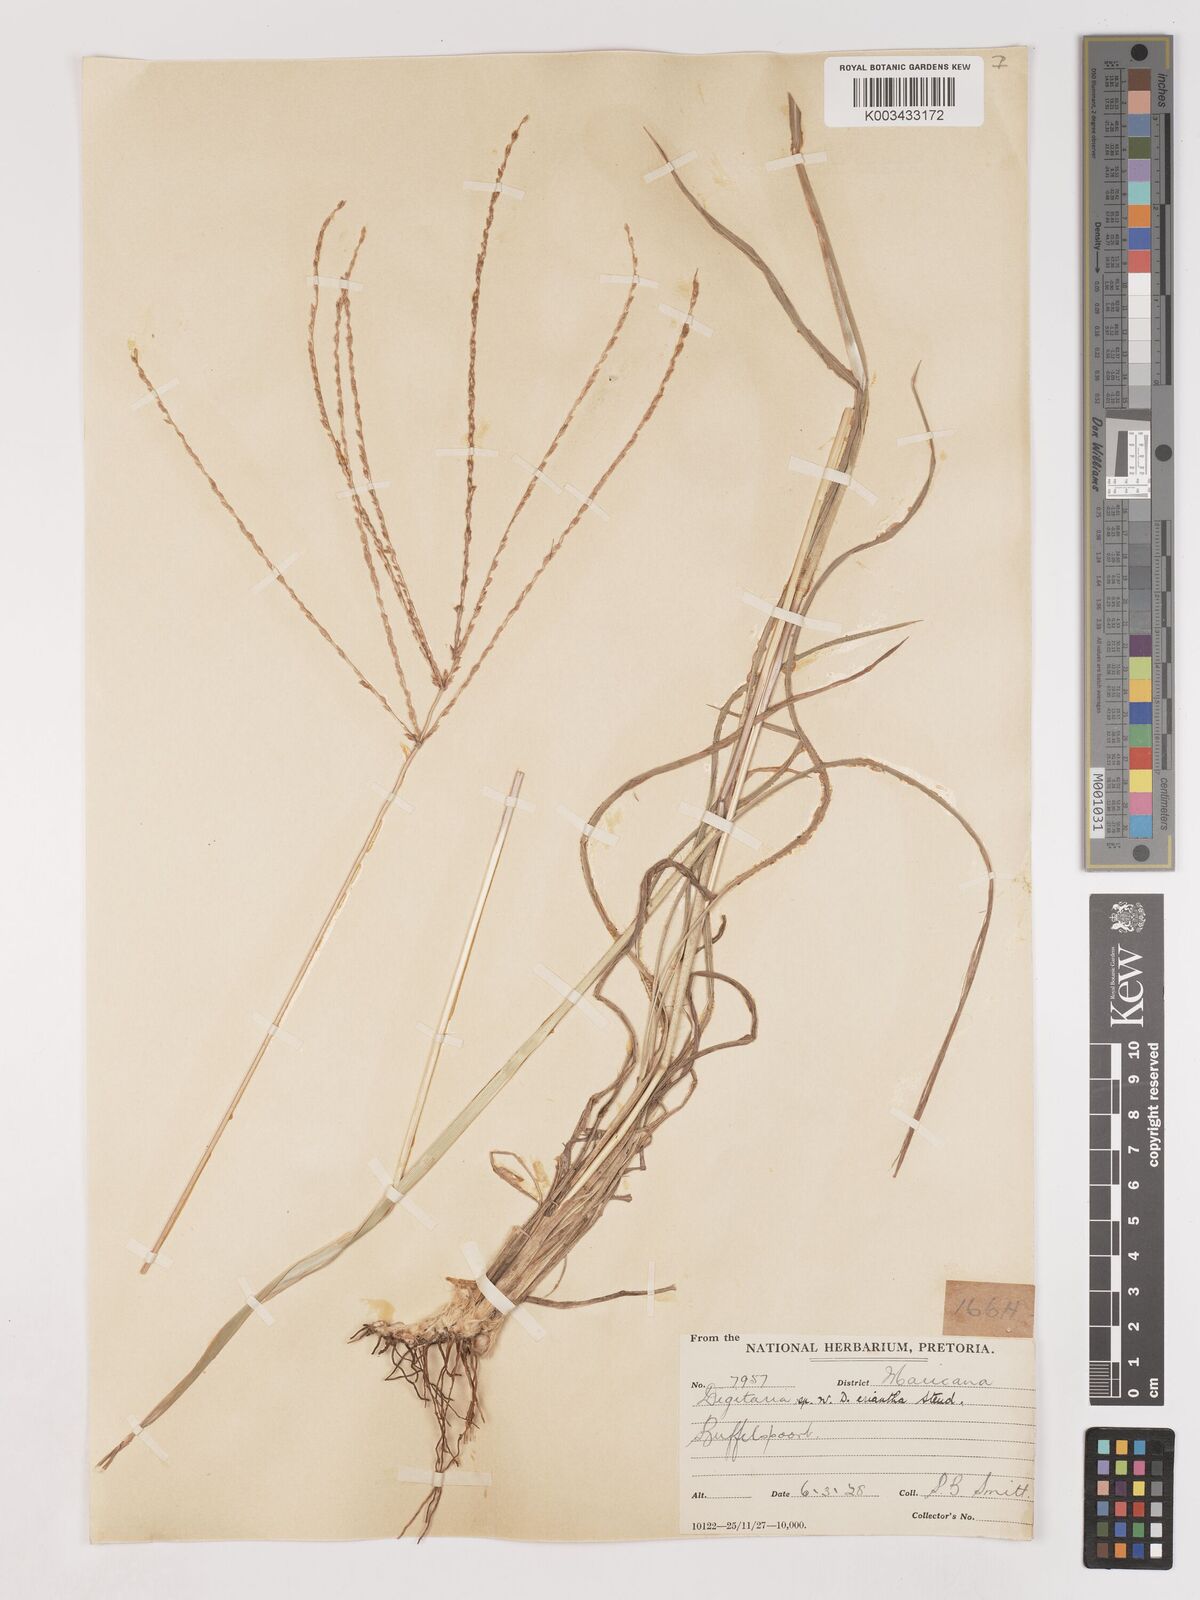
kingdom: Plantae
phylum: Tracheophyta
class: Liliopsida
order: Poales
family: Poaceae
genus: Digitaria
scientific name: Digitaria milanjiana
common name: Madagascar crabgrass
